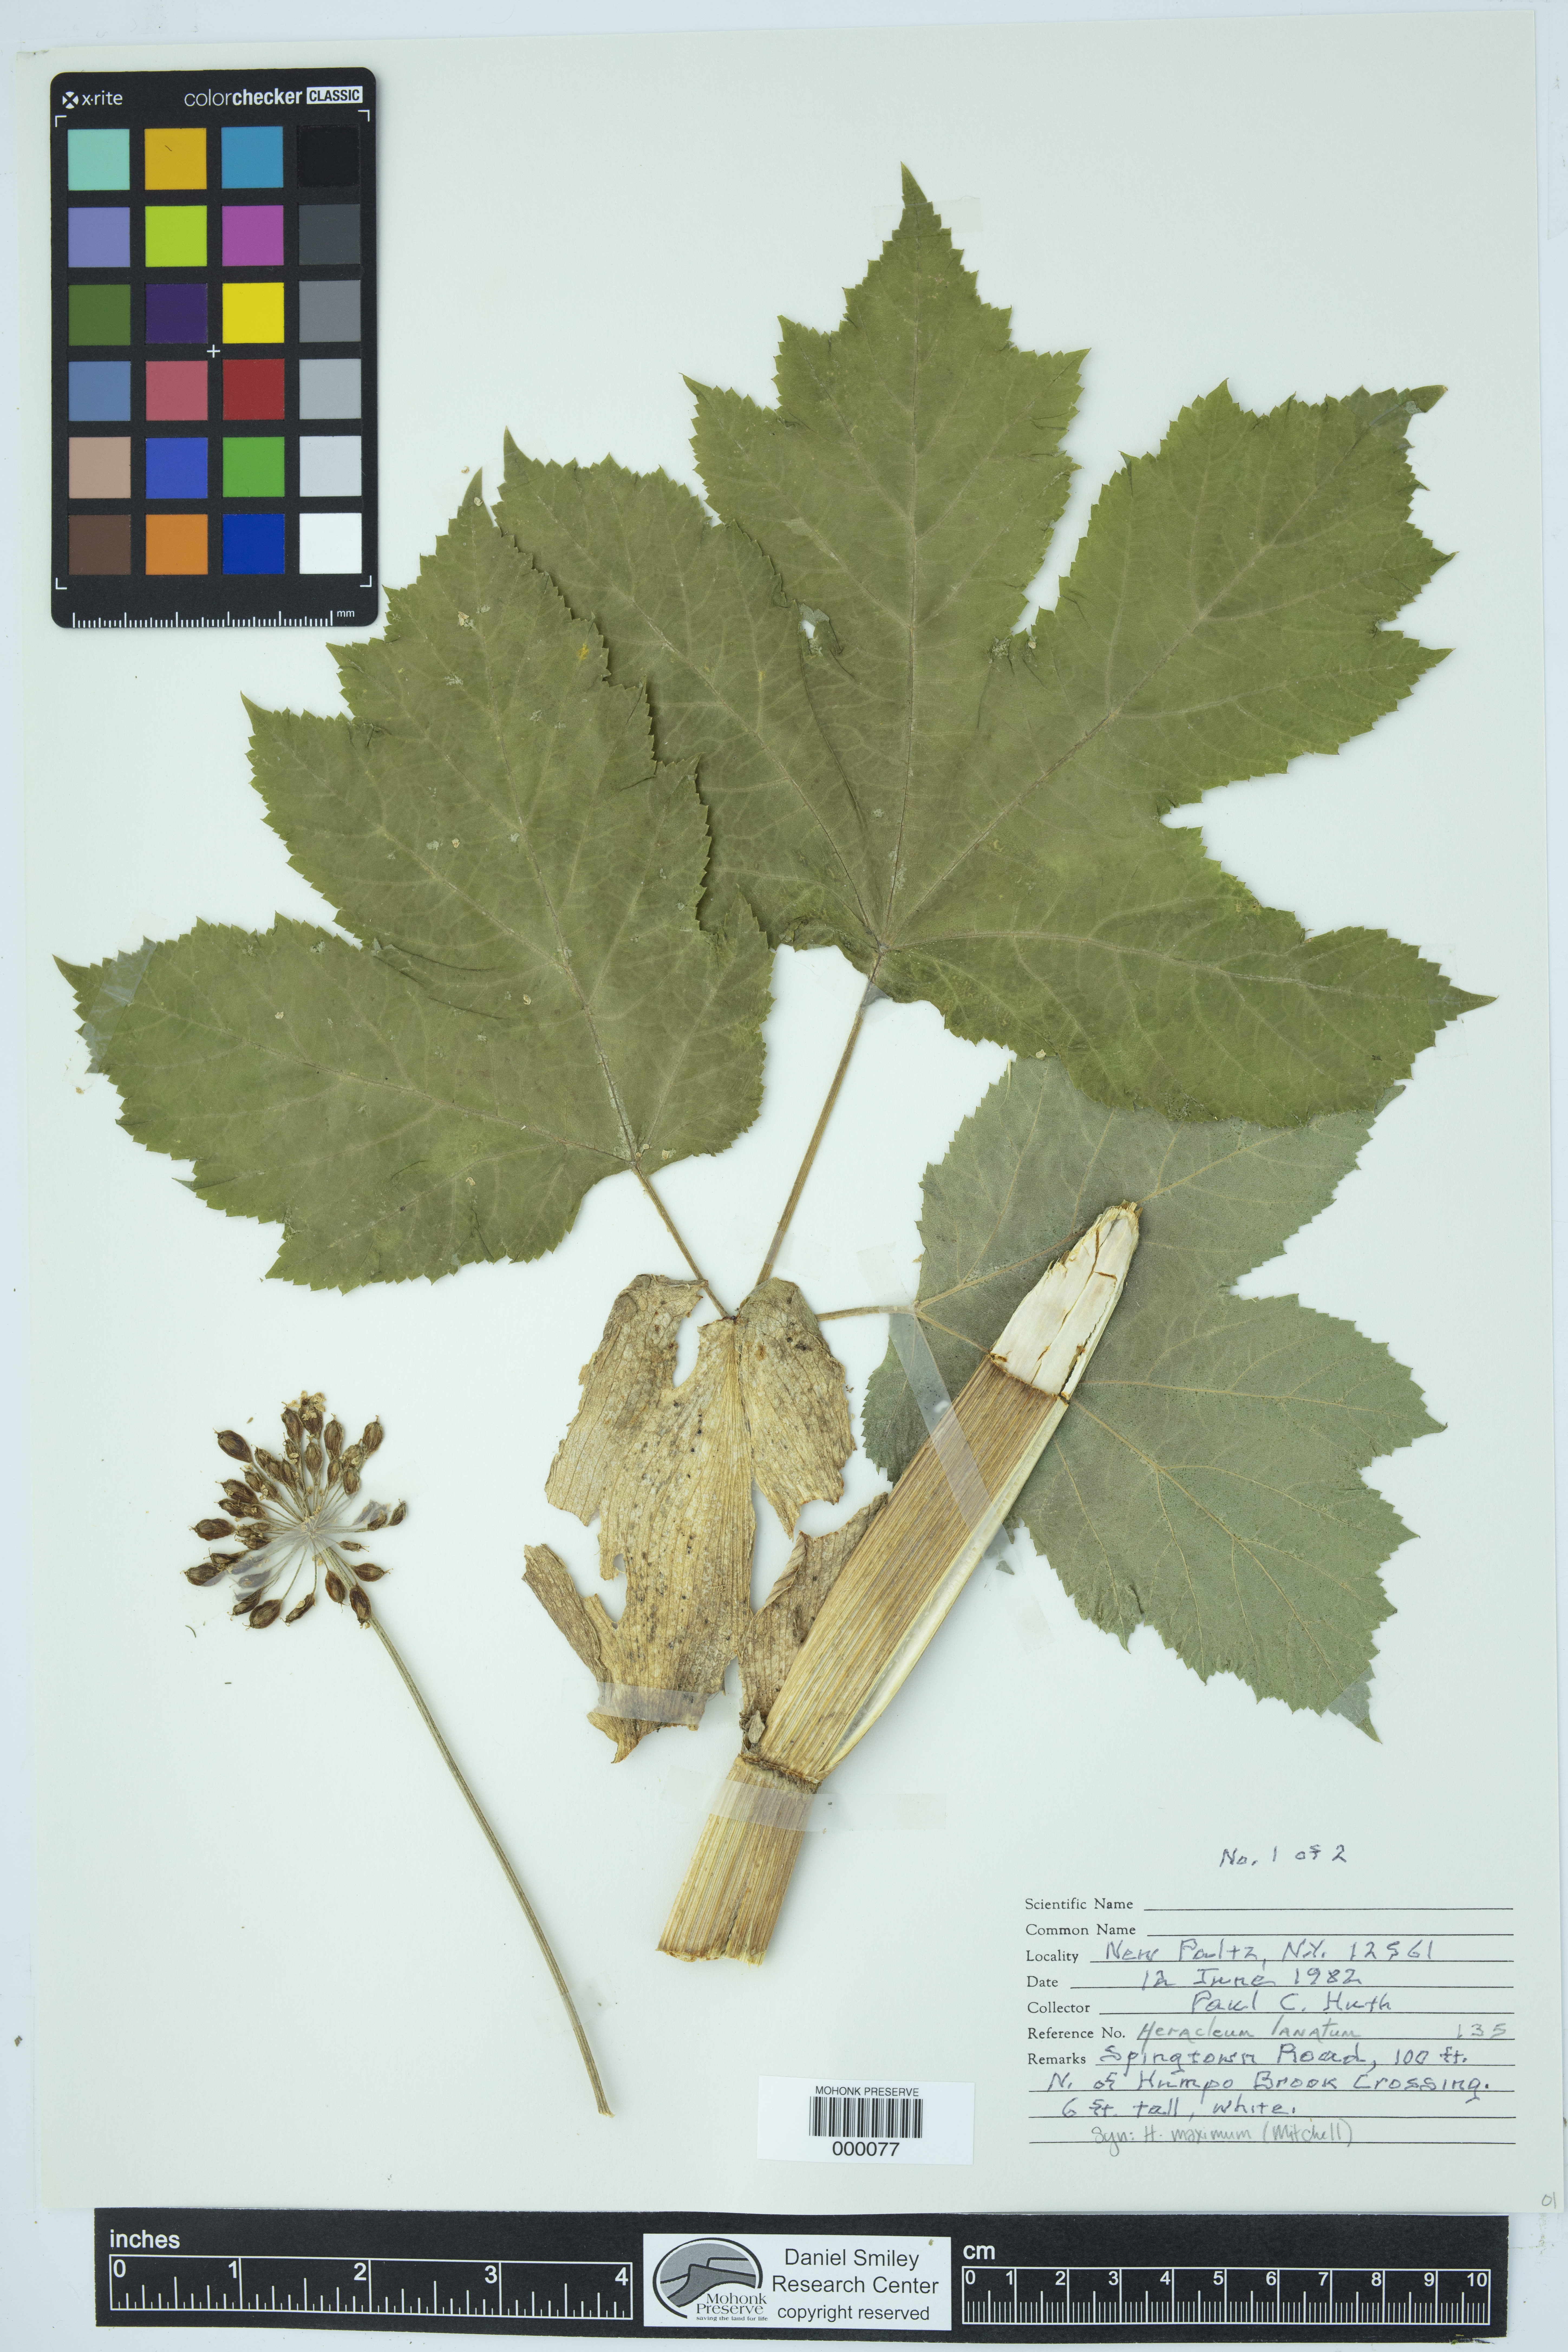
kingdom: Plantae
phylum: Tracheophyta
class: Magnoliopsida
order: Apiales
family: Apiaceae
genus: Heracleum
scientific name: Heracleum maximum
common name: American cow parsnip
